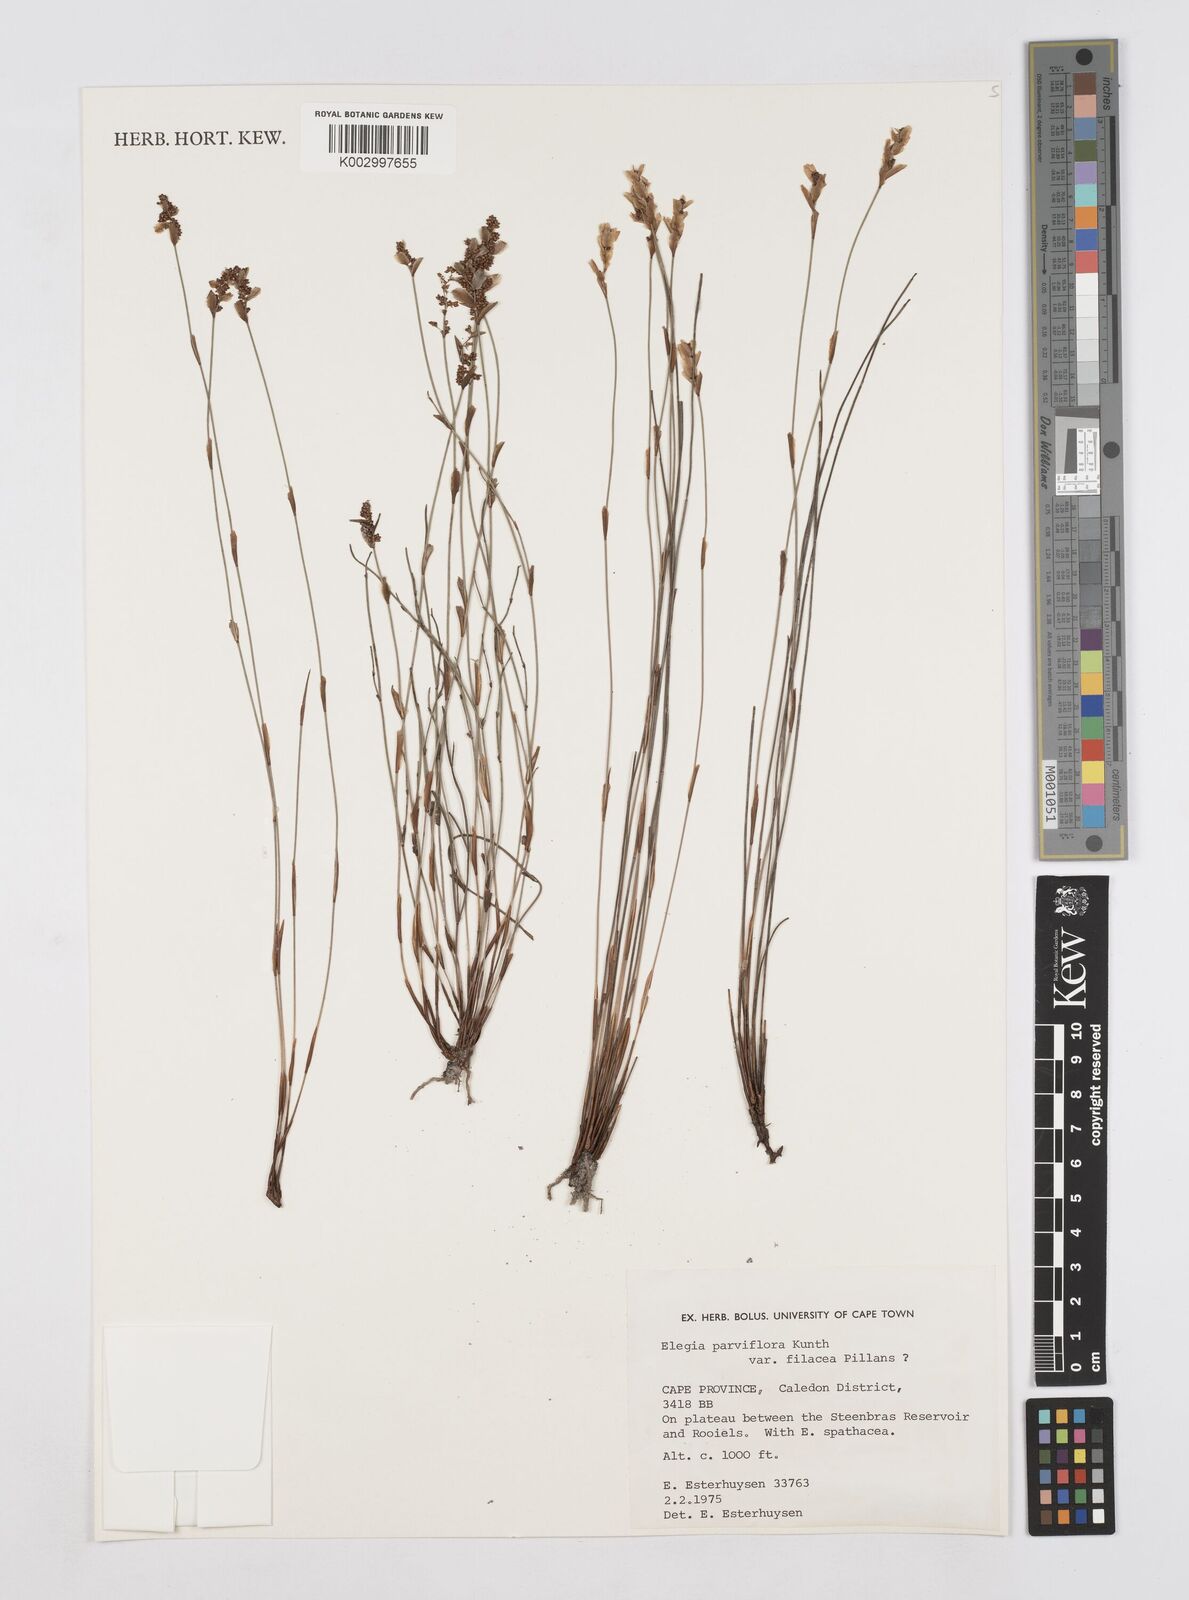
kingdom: Plantae
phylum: Tracheophyta
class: Liliopsida
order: Poales
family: Restionaceae
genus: Cannomois
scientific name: Cannomois parviflora
